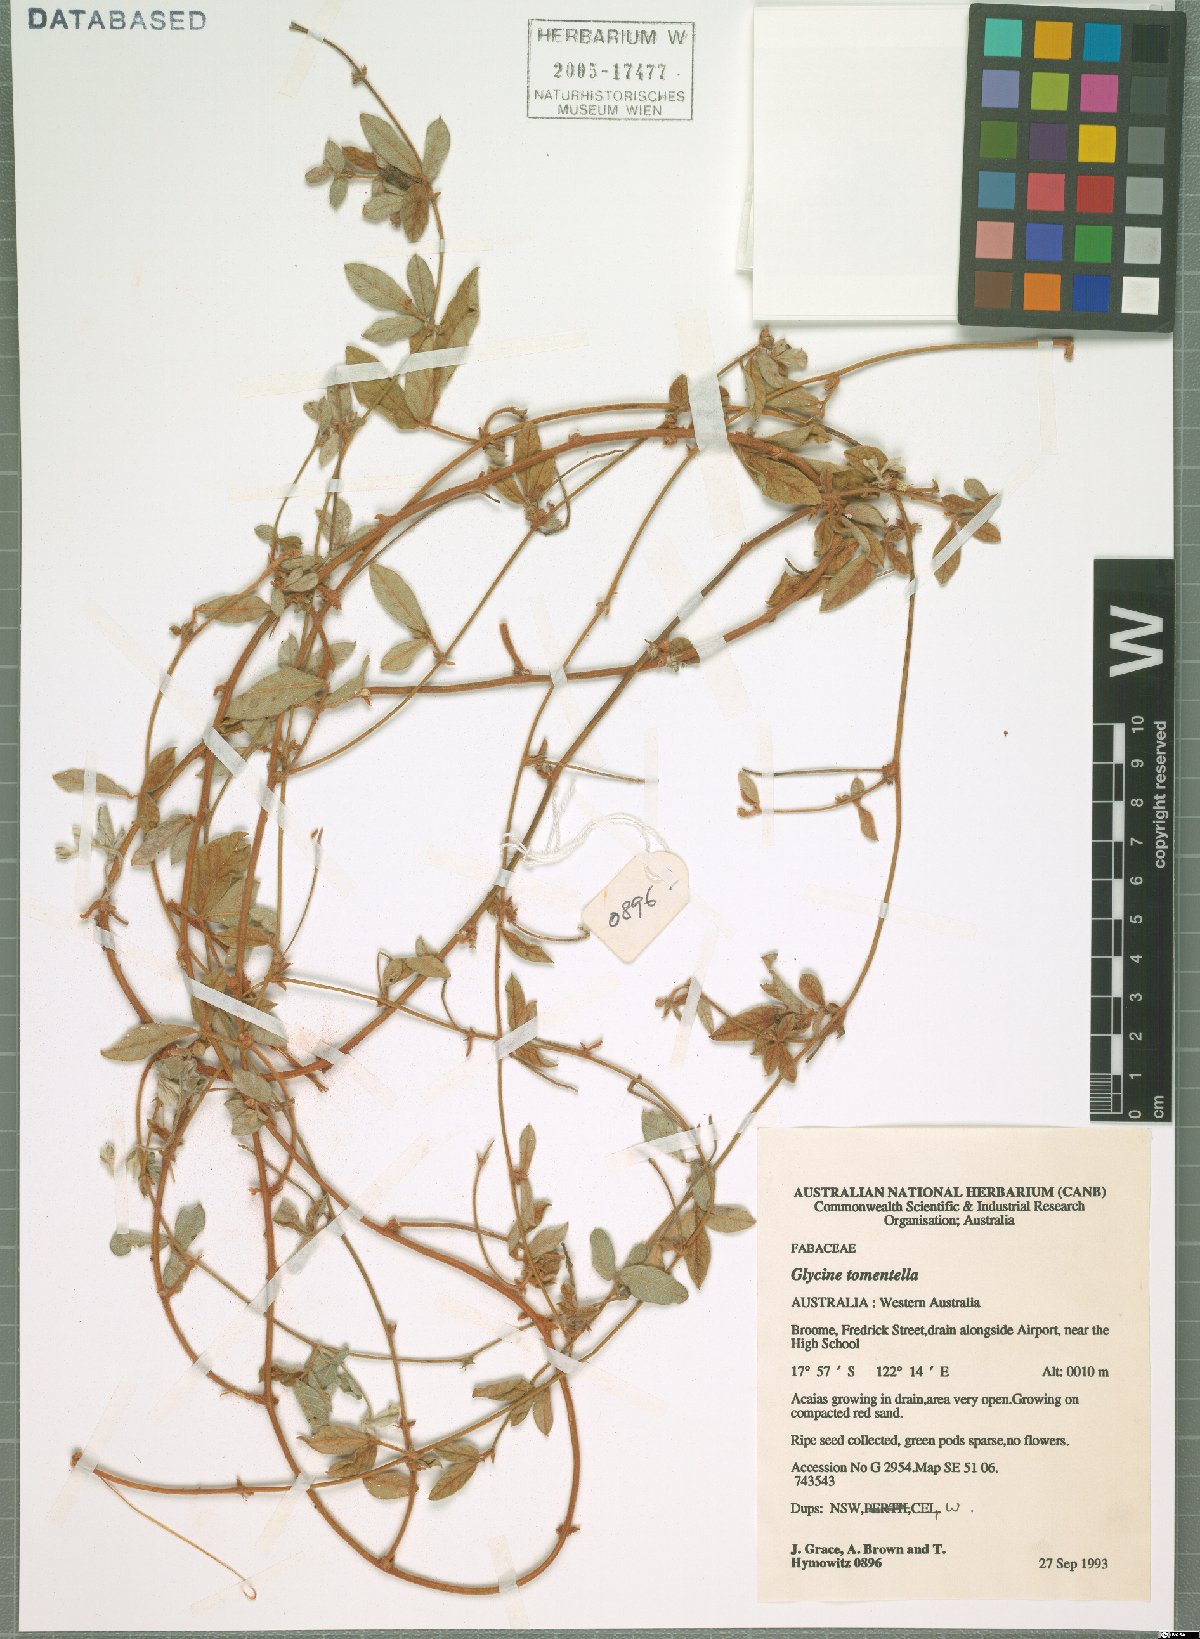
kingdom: Plantae
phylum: Tracheophyta
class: Magnoliopsida
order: Fabales
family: Fabaceae
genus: Glycine
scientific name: Glycine tomentella
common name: Hairy glycine
